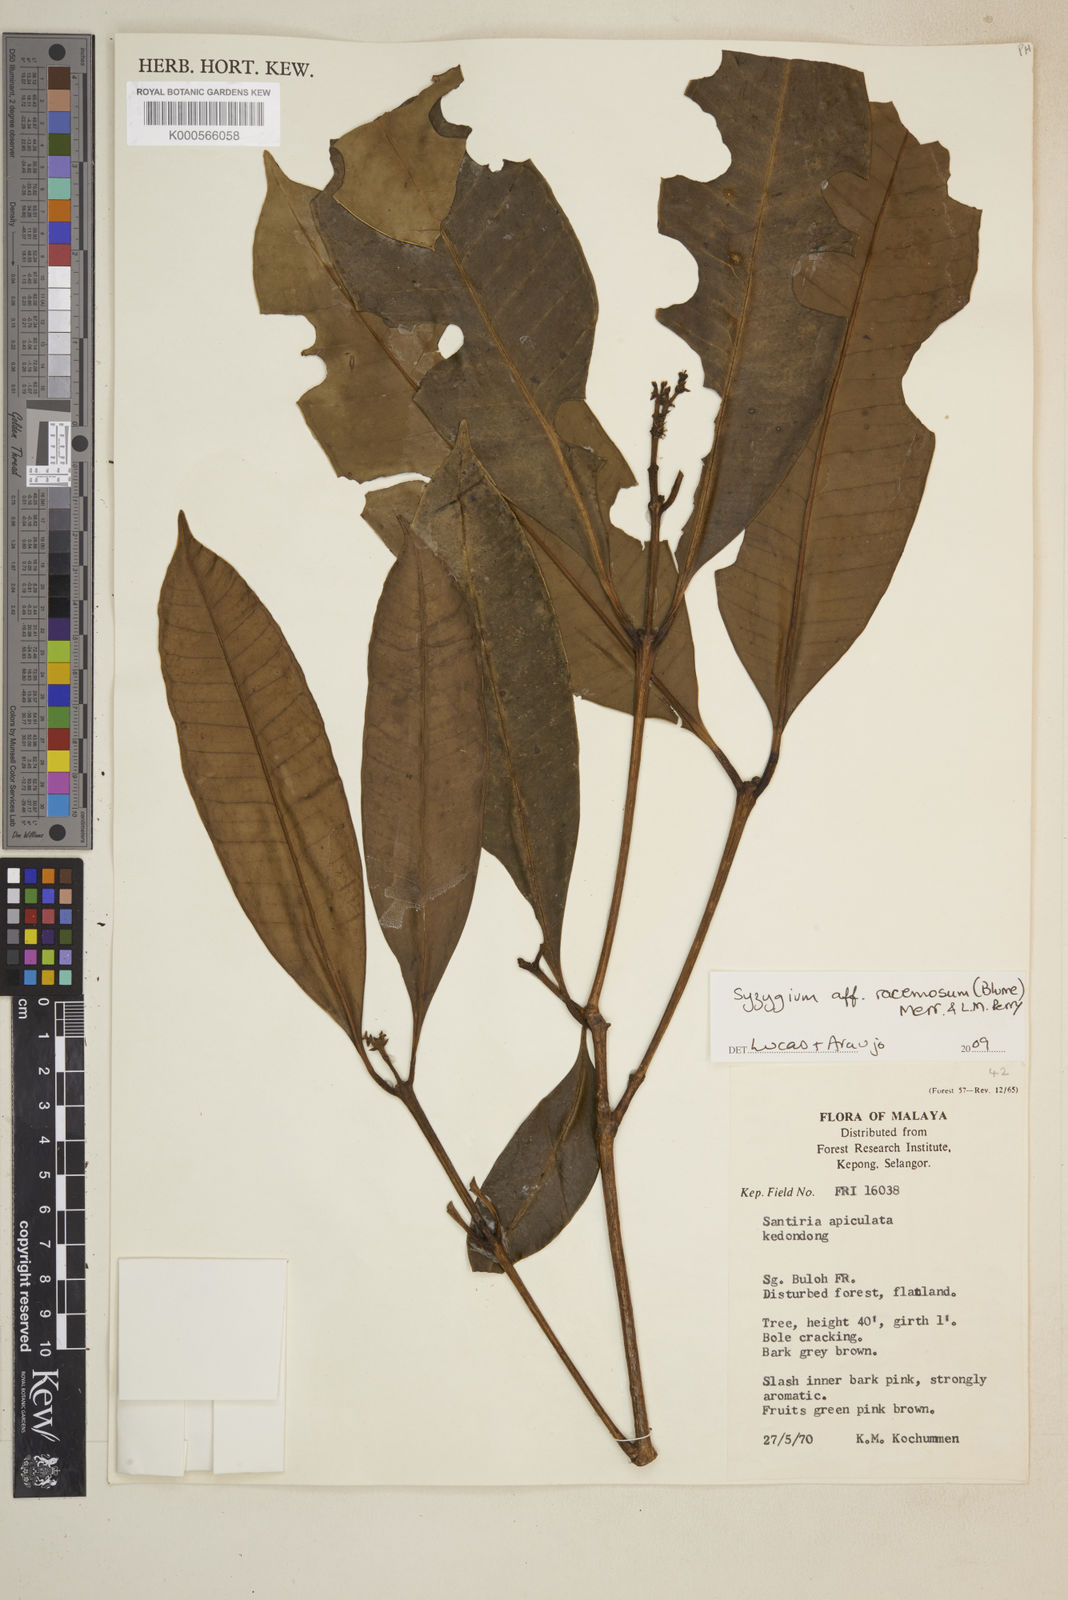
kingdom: Plantae
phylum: Tracheophyta
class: Magnoliopsida
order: Myrtales
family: Myrtaceae
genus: Myrcia
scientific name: Myrcia
